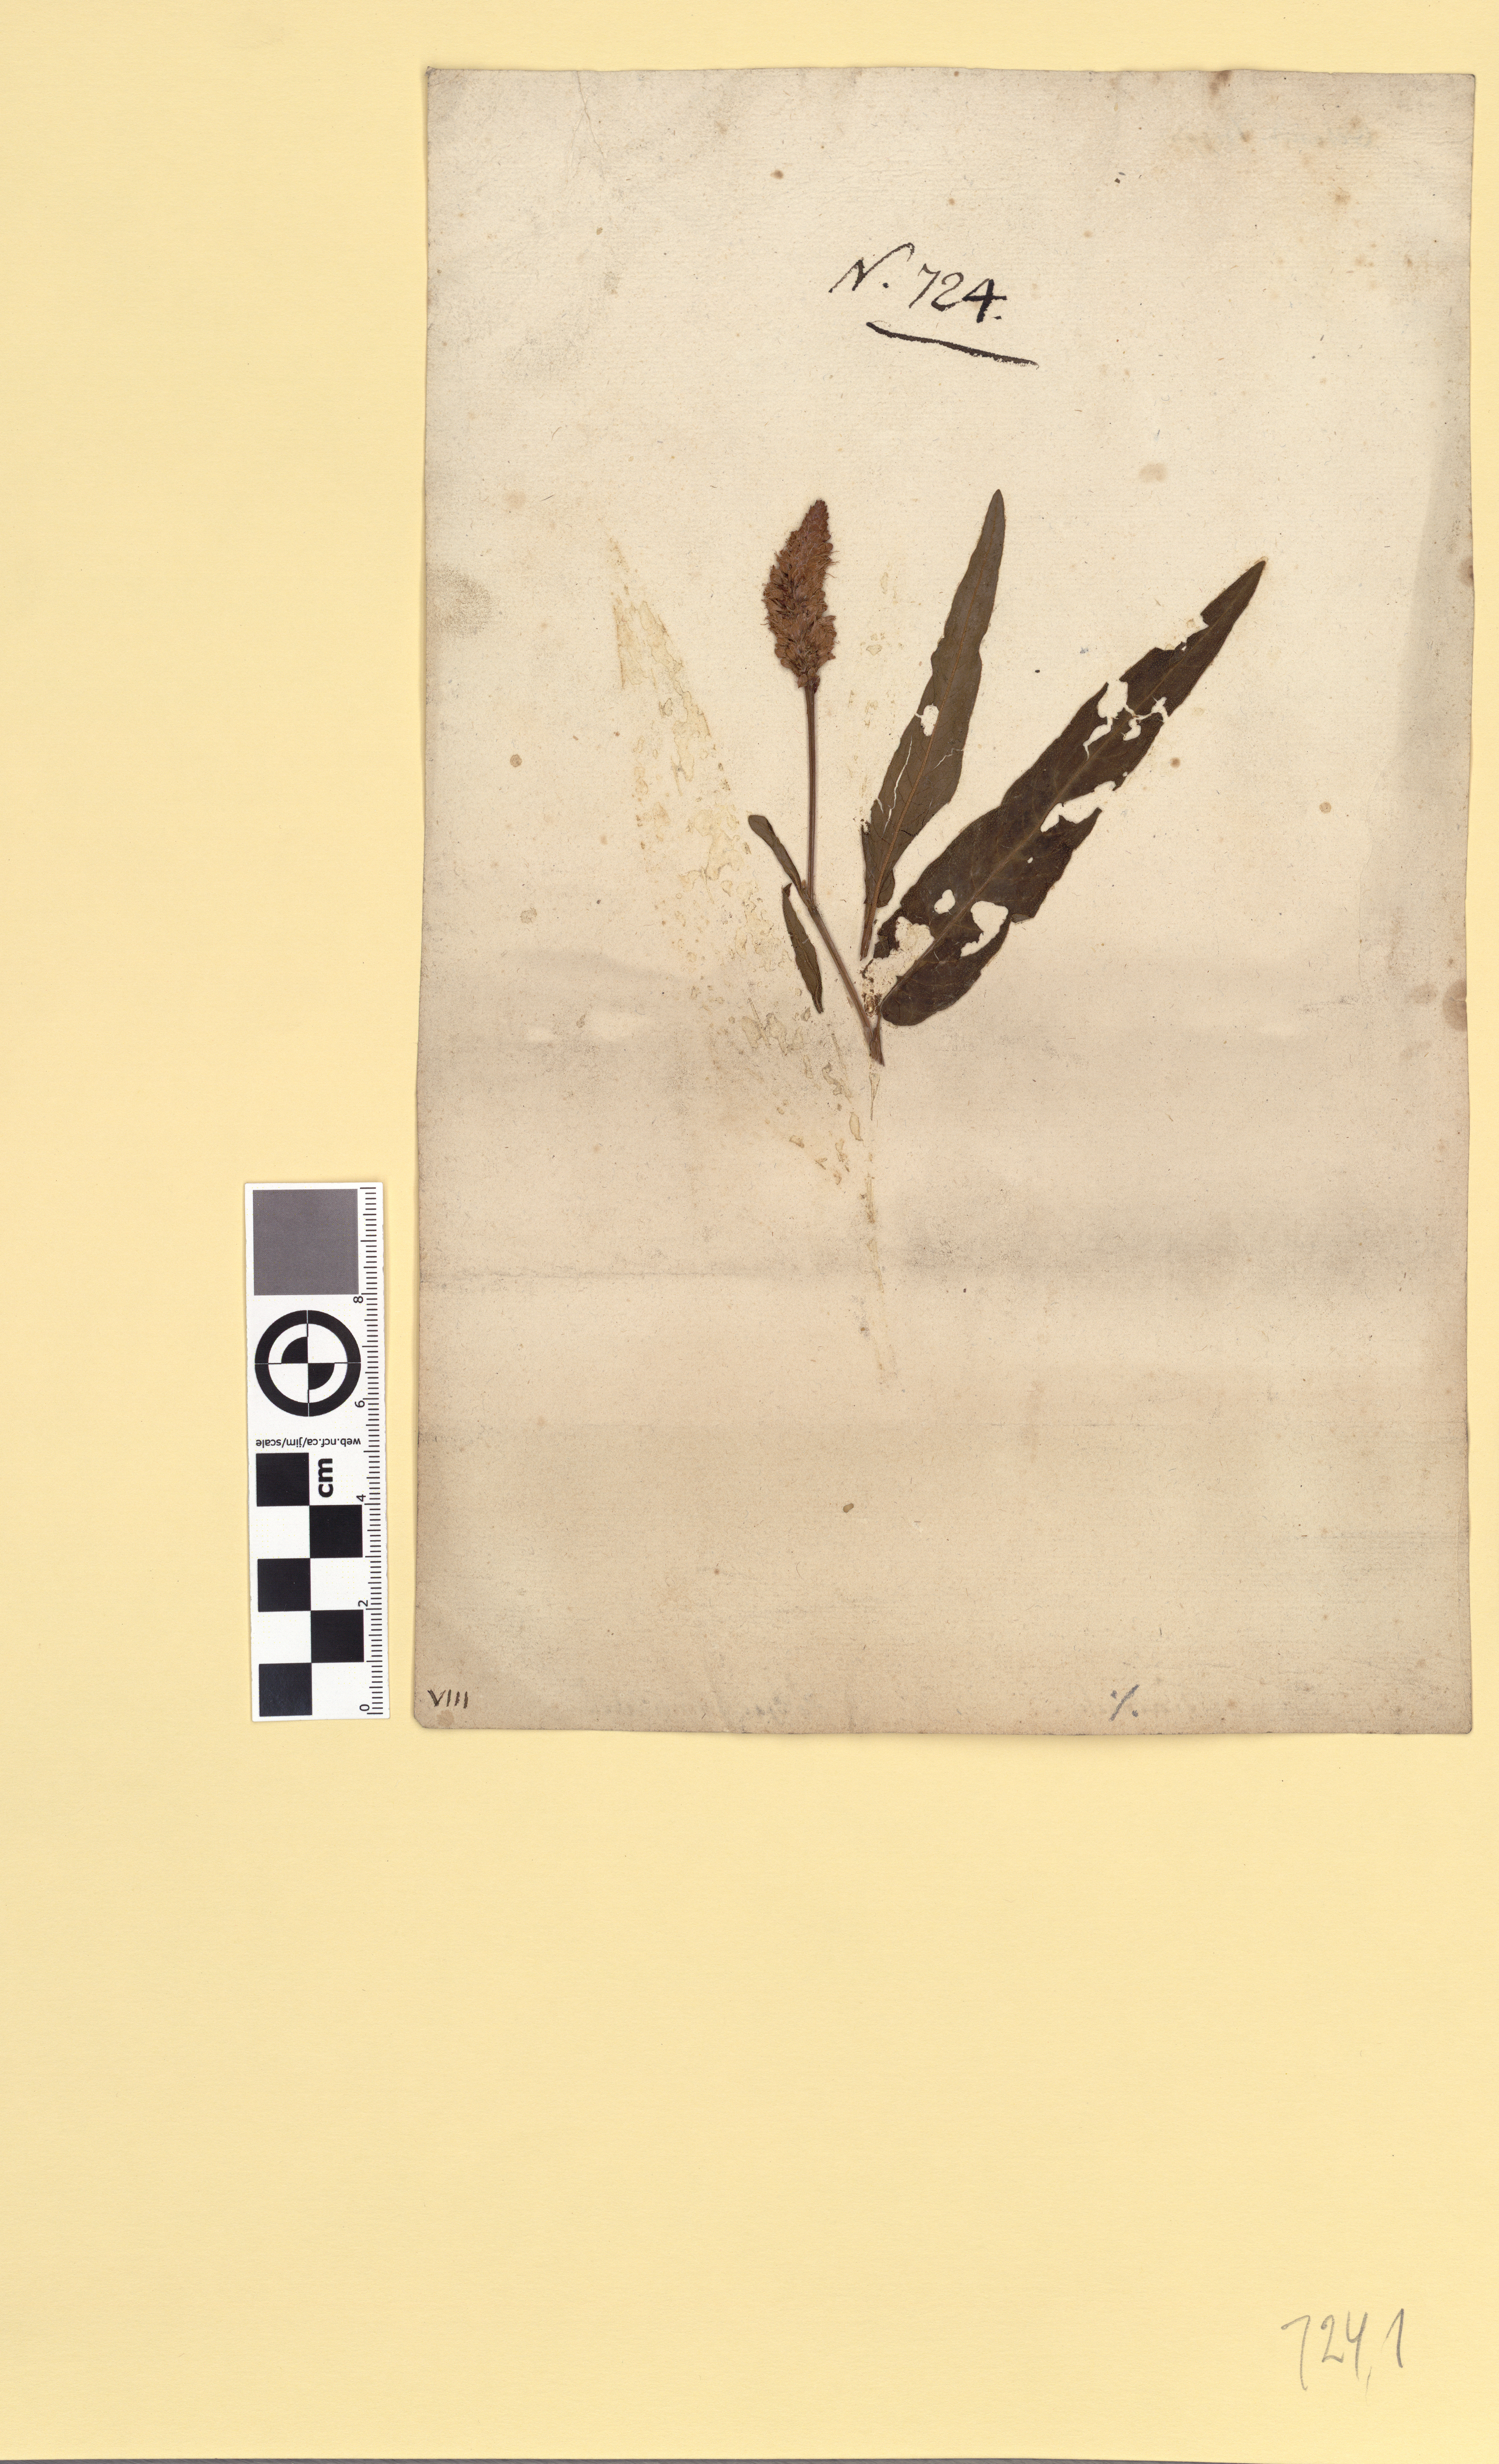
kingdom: Plantae
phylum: Tracheophyta
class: Magnoliopsida
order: Caryophyllales
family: Polygonaceae
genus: Persicaria
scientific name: Persicaria amphibia
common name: Amphibious bistort
